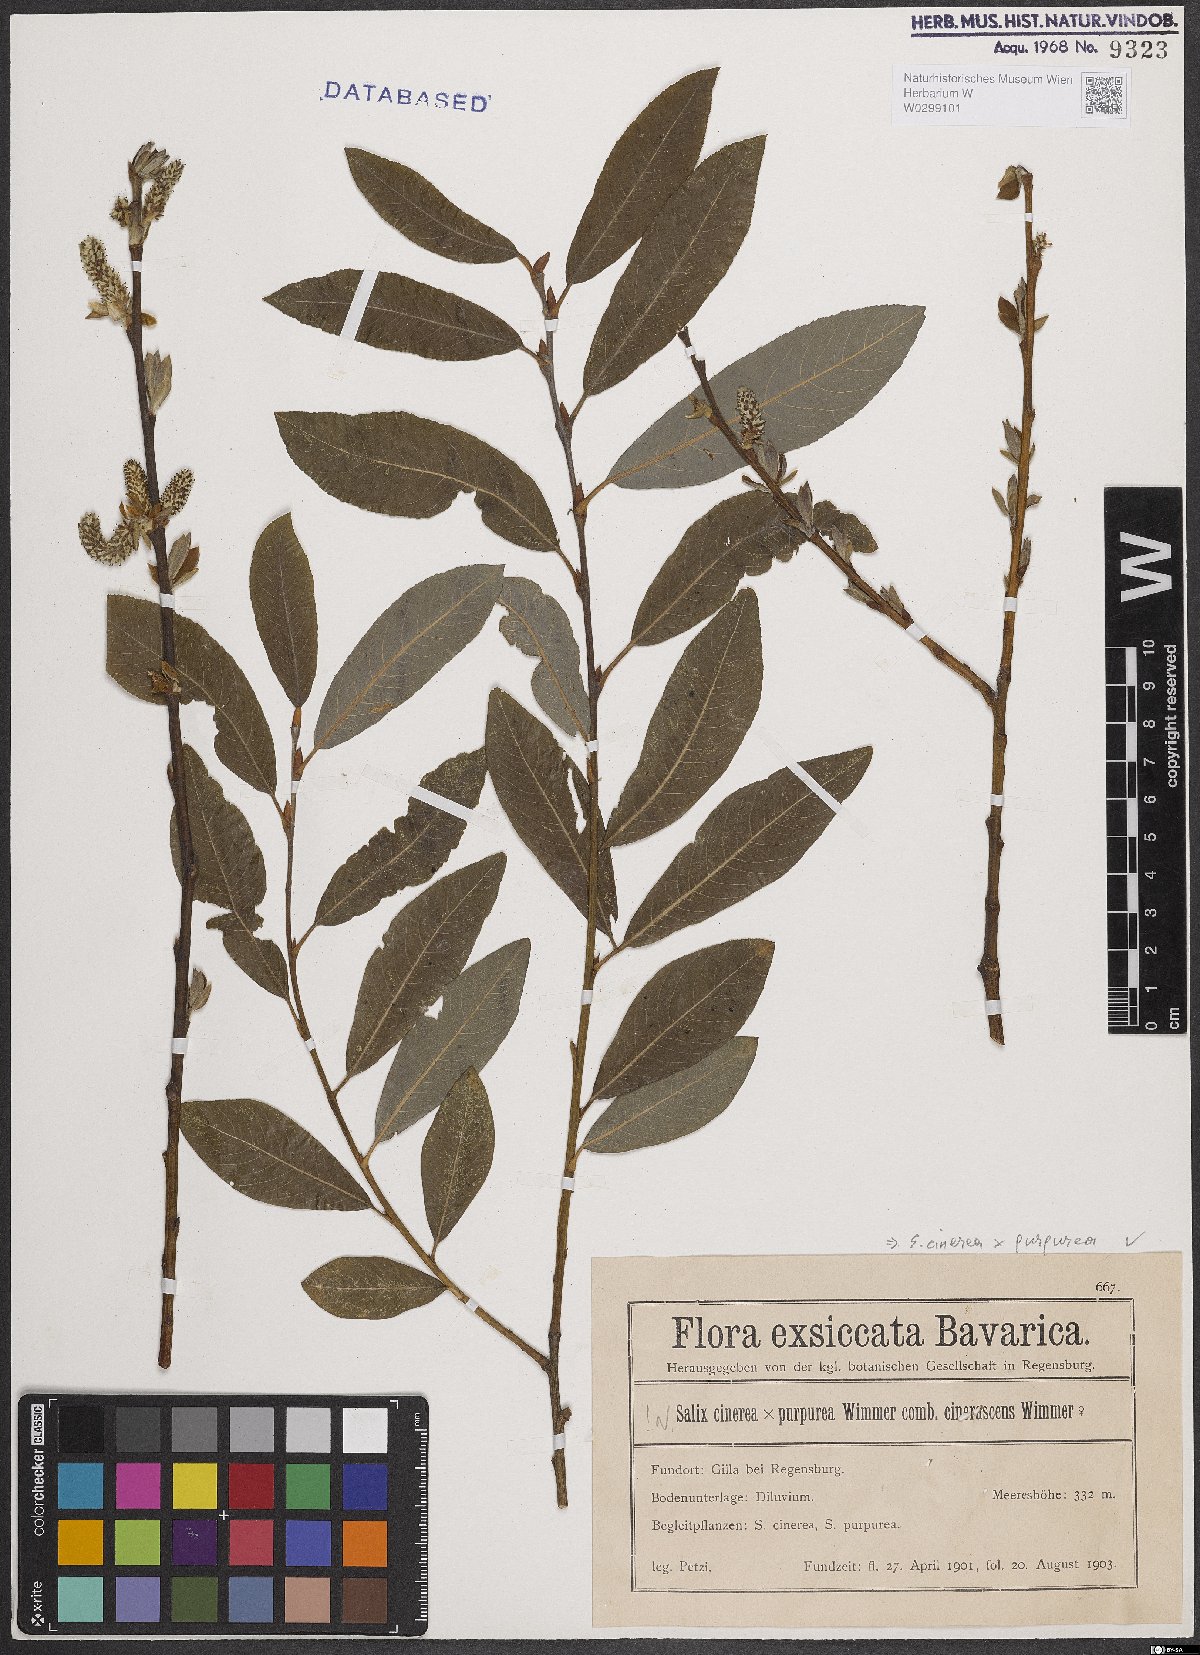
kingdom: Plantae
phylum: Tracheophyta
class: Magnoliopsida
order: Malpighiales
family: Salicaceae
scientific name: Salicaceae
